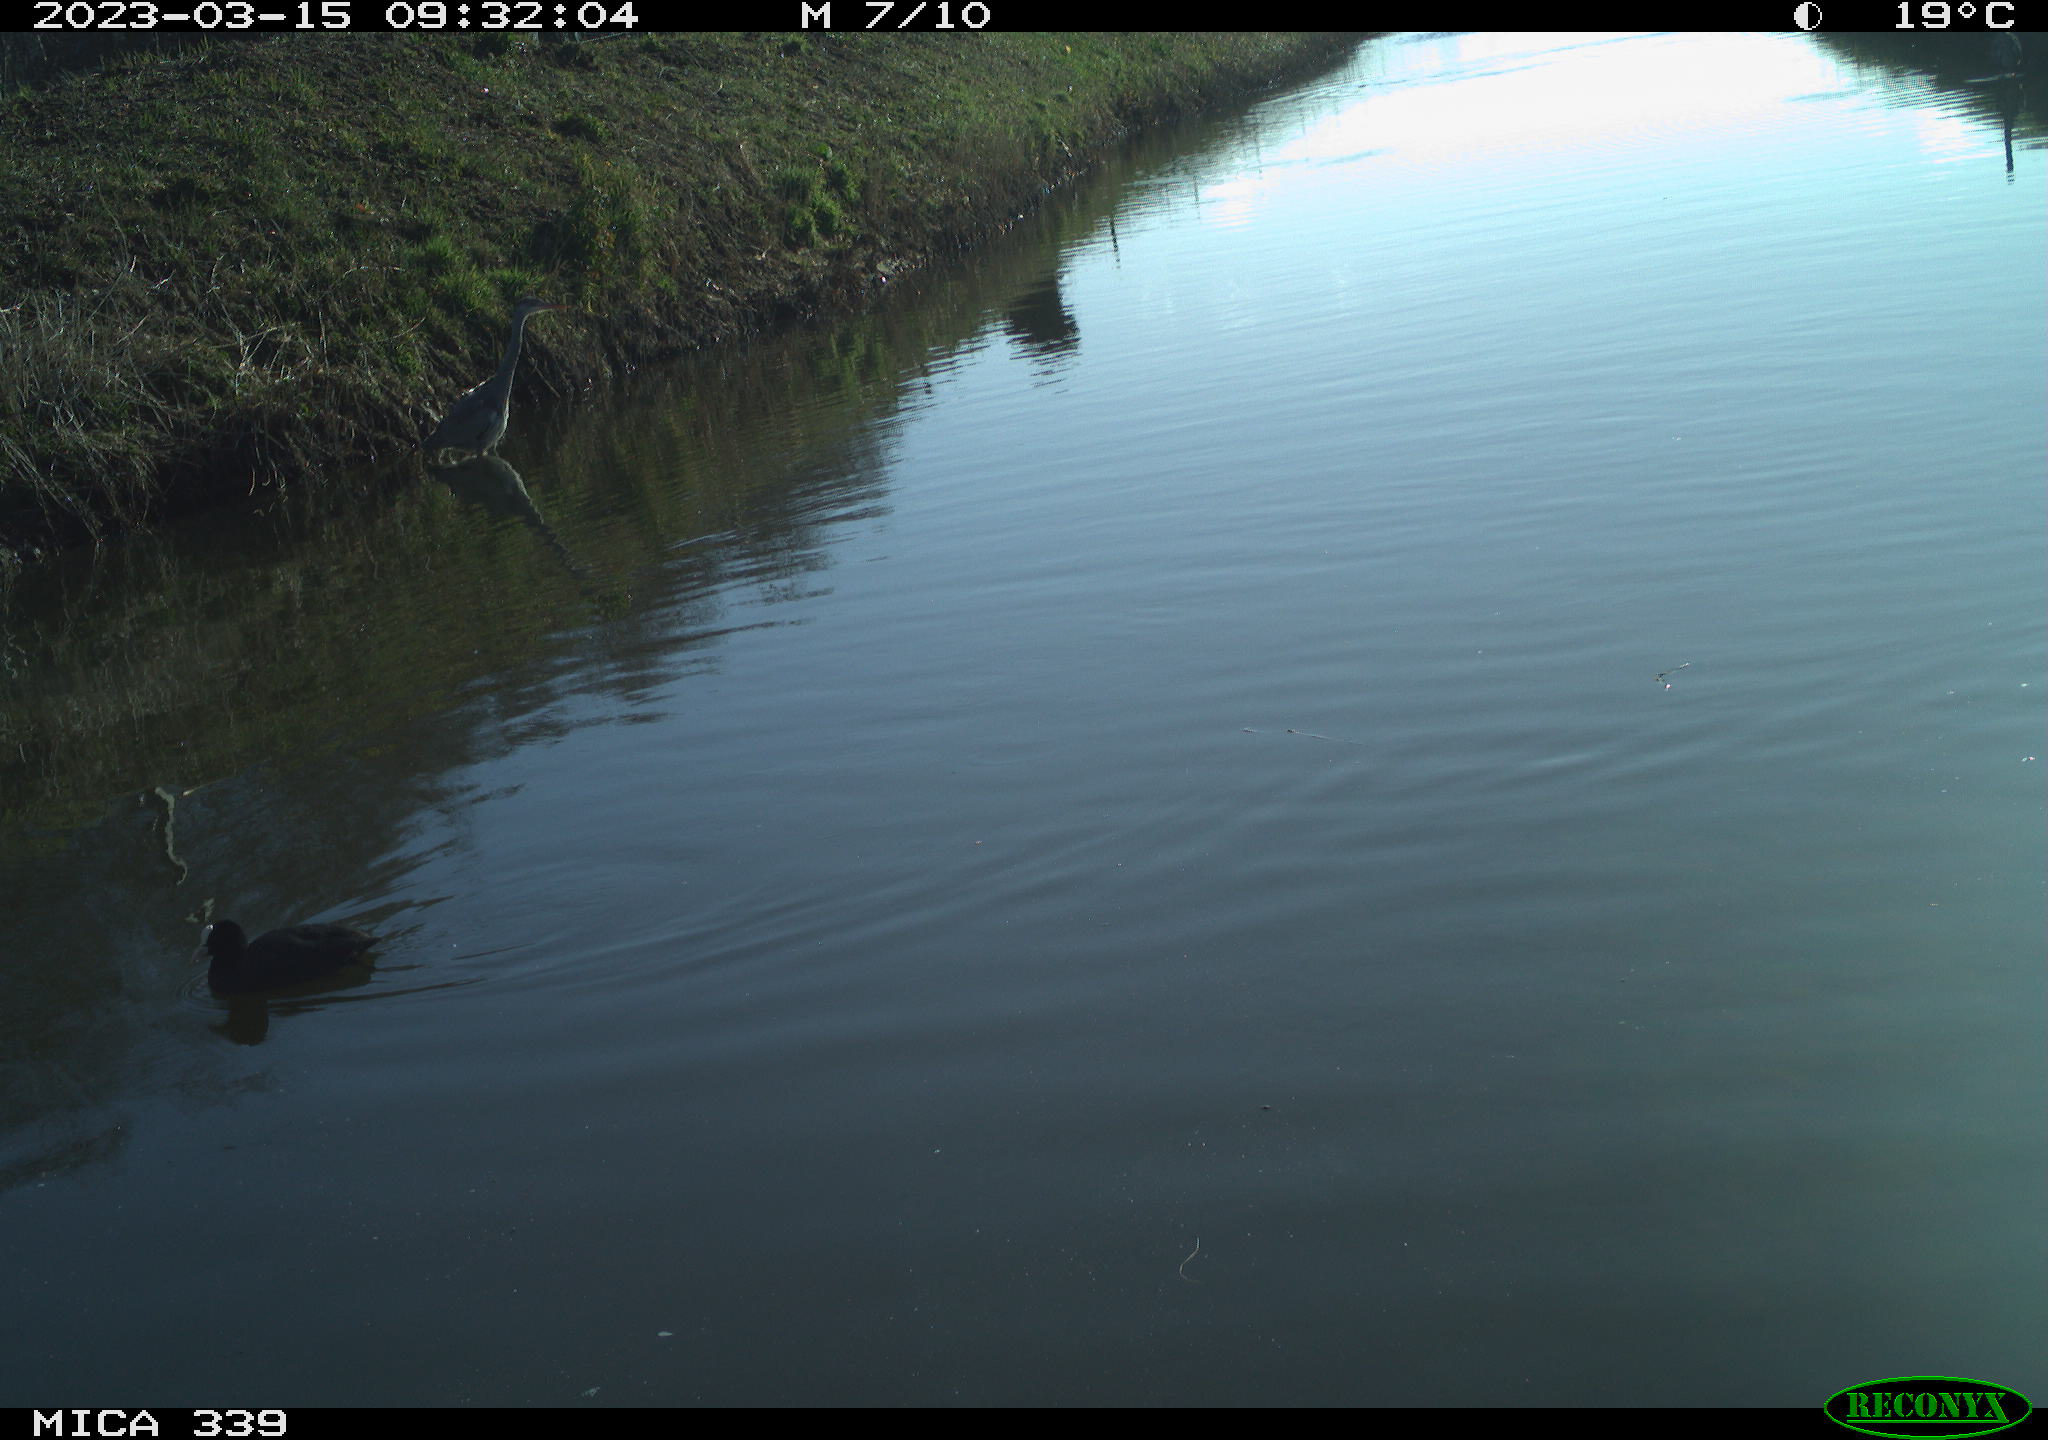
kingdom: Animalia
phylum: Chordata
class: Aves
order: Pelecaniformes
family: Ardeidae
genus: Ardea
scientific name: Ardea cinerea
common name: Grey heron
